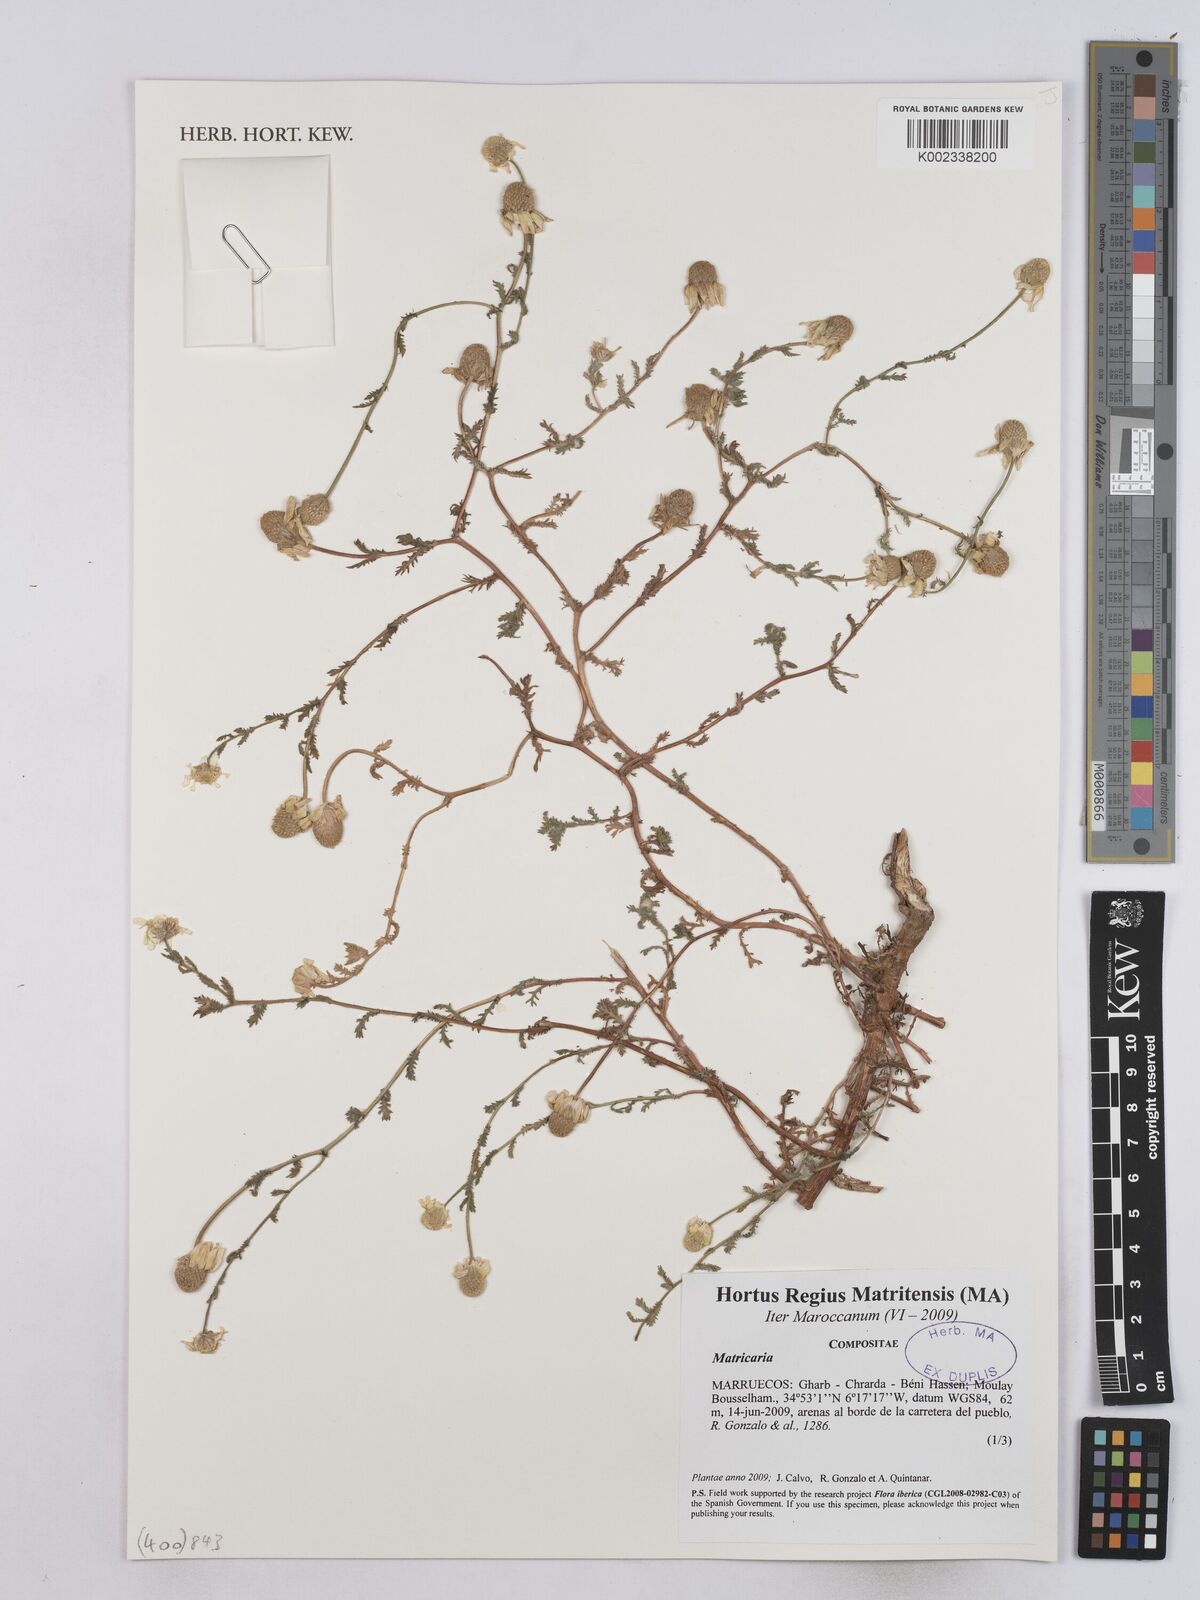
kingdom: Plantae
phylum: Tracheophyta
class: Magnoliopsida
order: Asterales
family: Asteraceae
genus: Matricaria
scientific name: Matricaria
